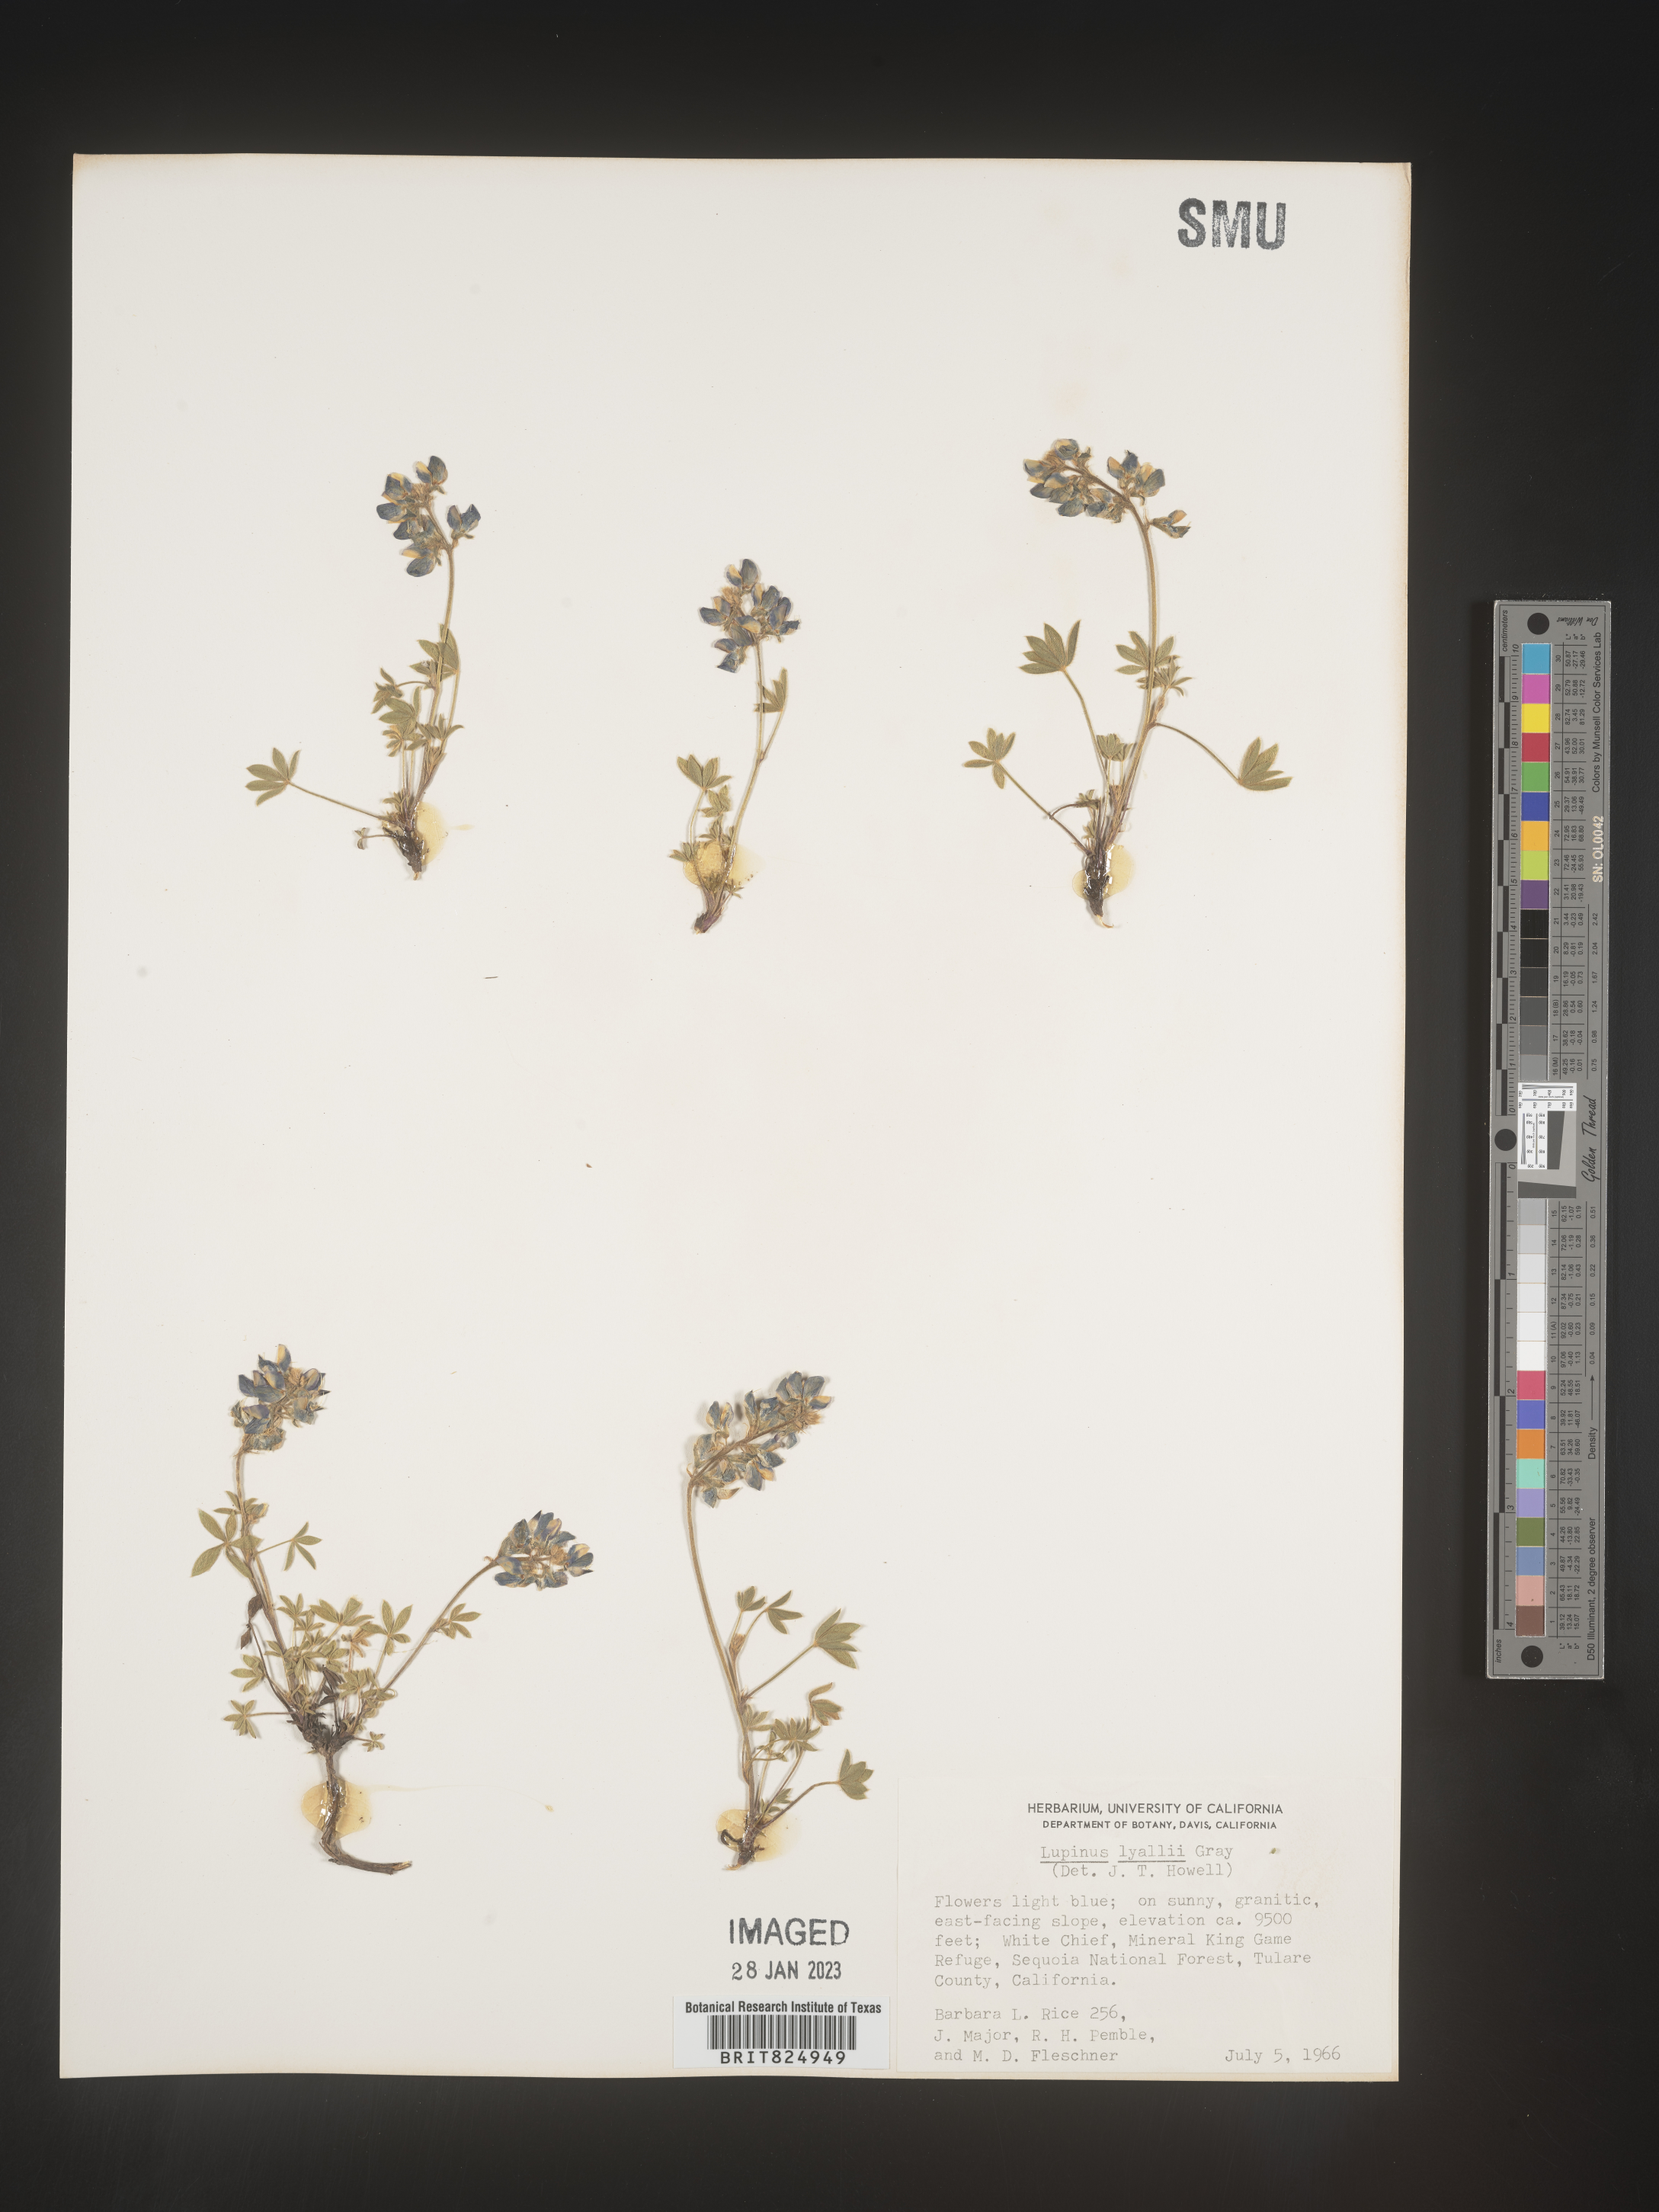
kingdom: Plantae
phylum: Tracheophyta
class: Magnoliopsida
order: Fabales
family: Fabaceae
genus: Lupinus
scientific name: Lupinus
